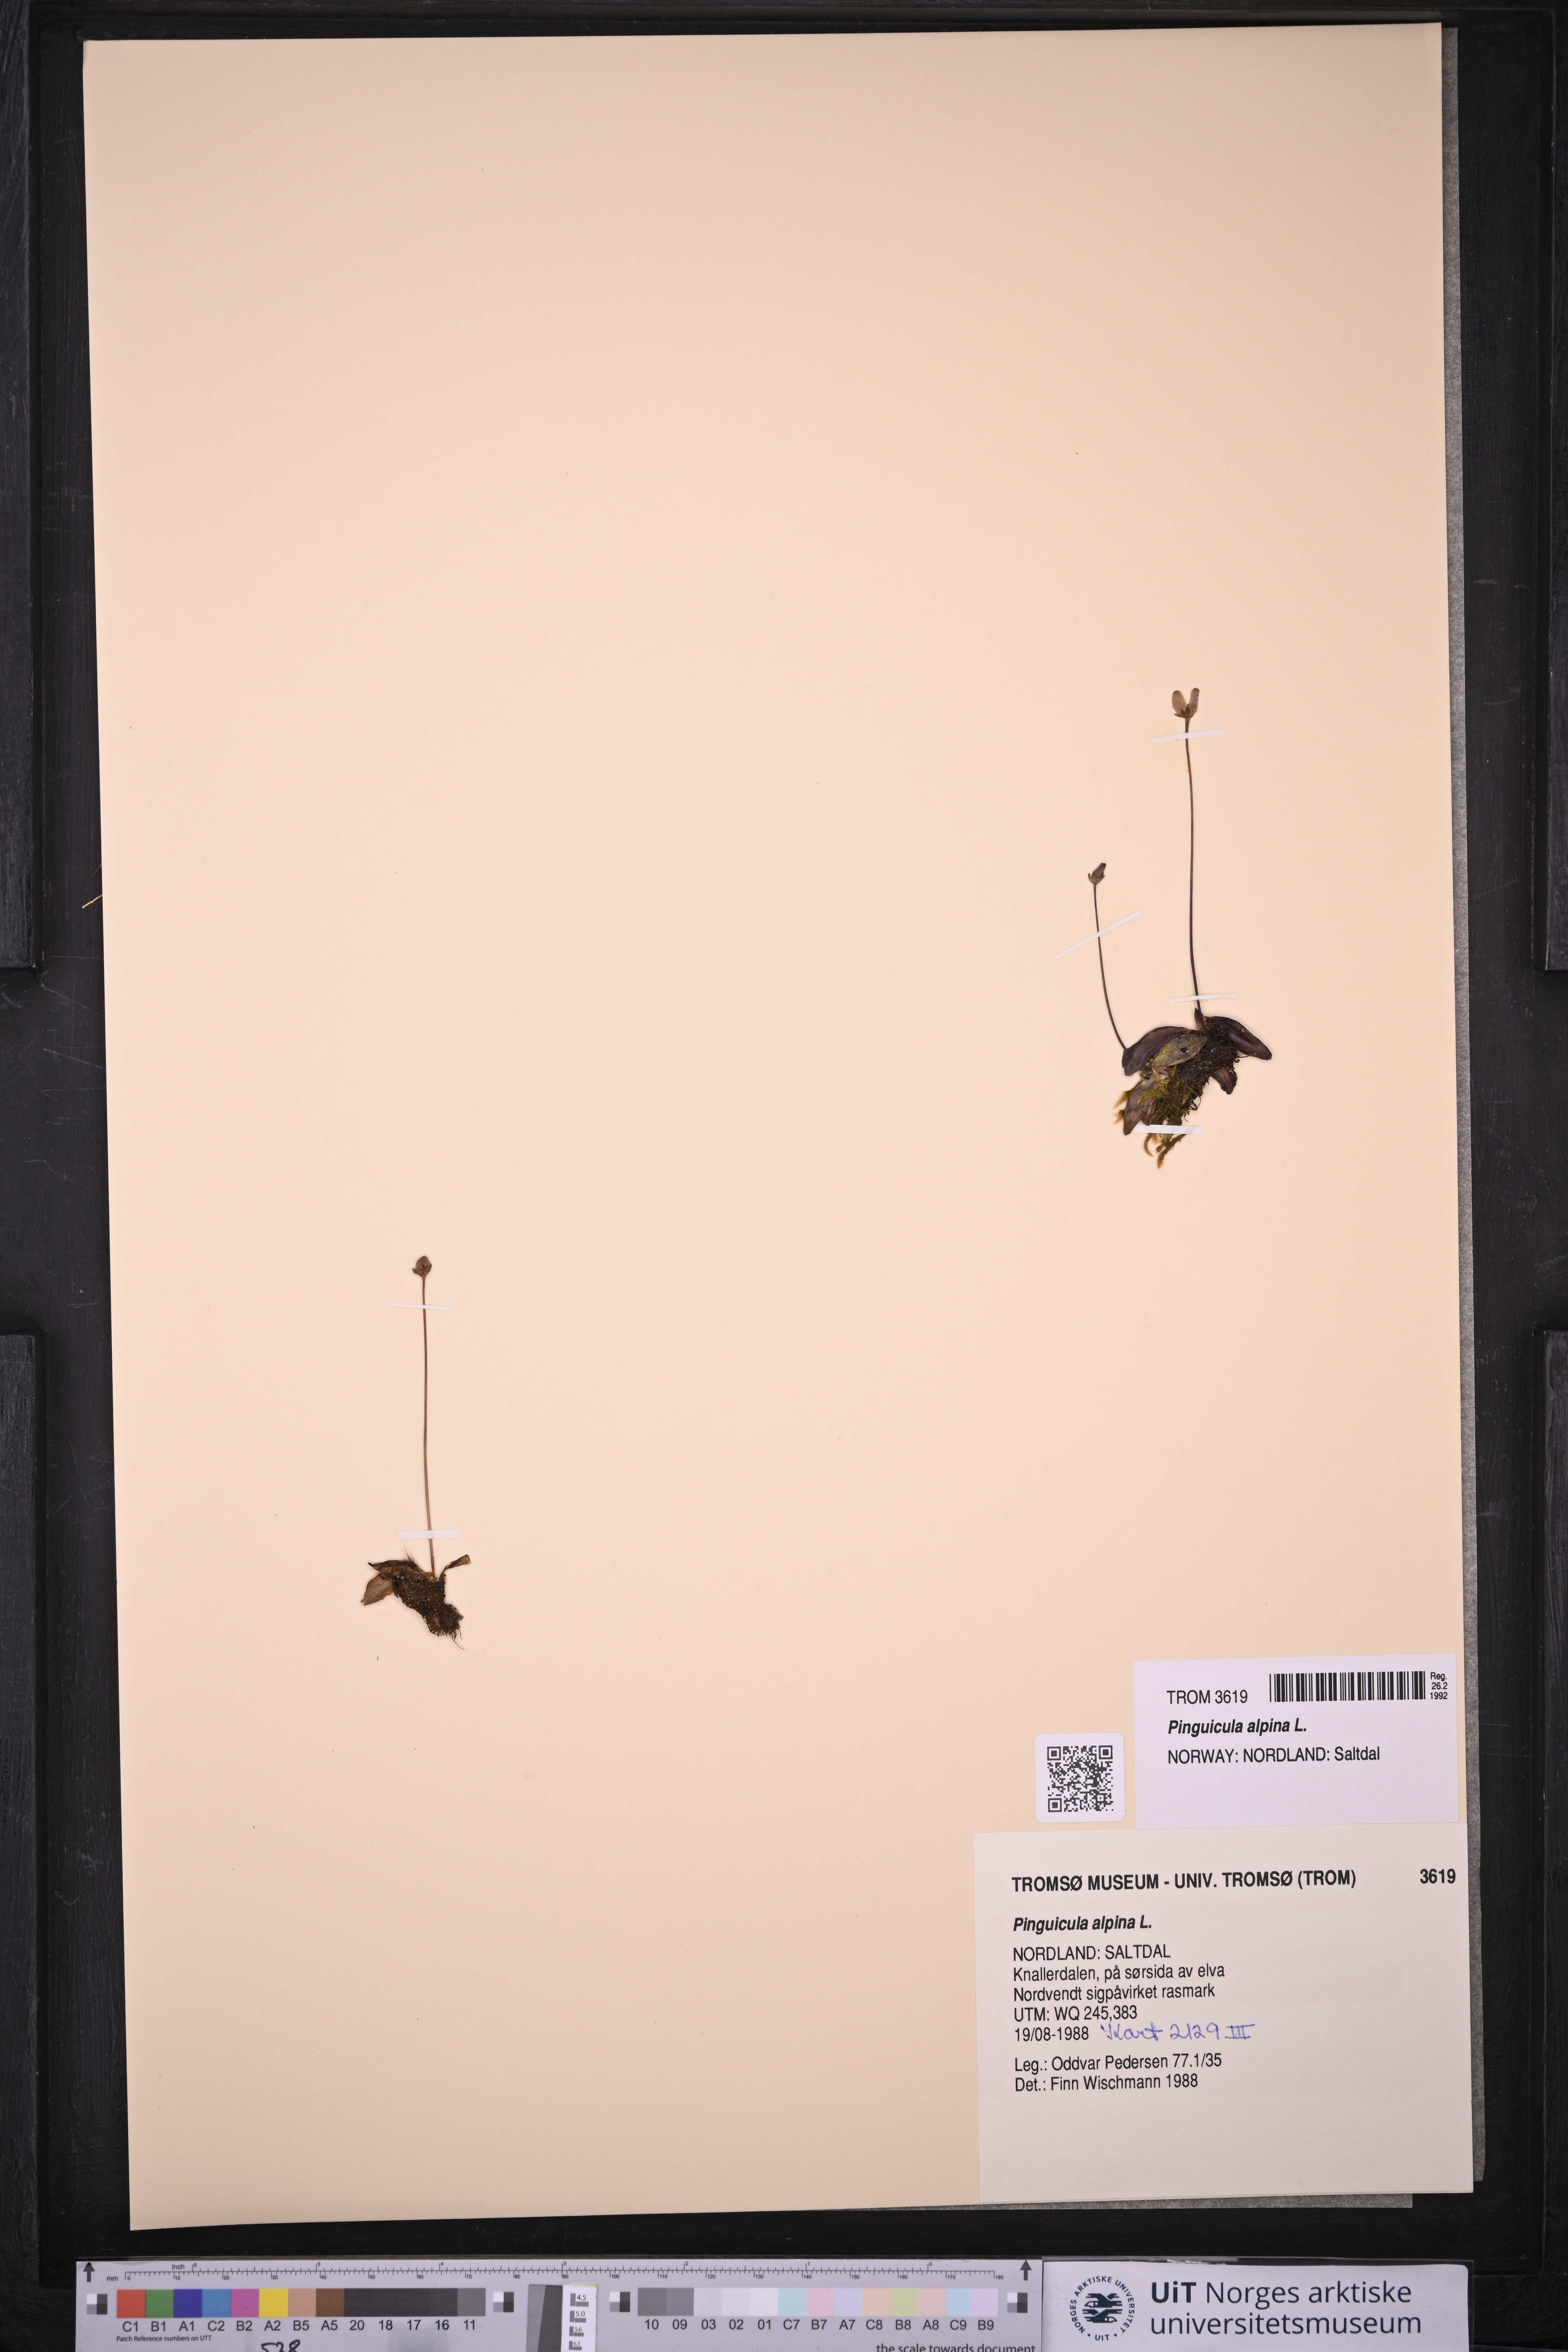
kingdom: Plantae
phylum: Tracheophyta
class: Magnoliopsida
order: Lamiales
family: Lentibulariaceae
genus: Pinguicula
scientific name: Pinguicula alpina
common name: Alpine butterwort
